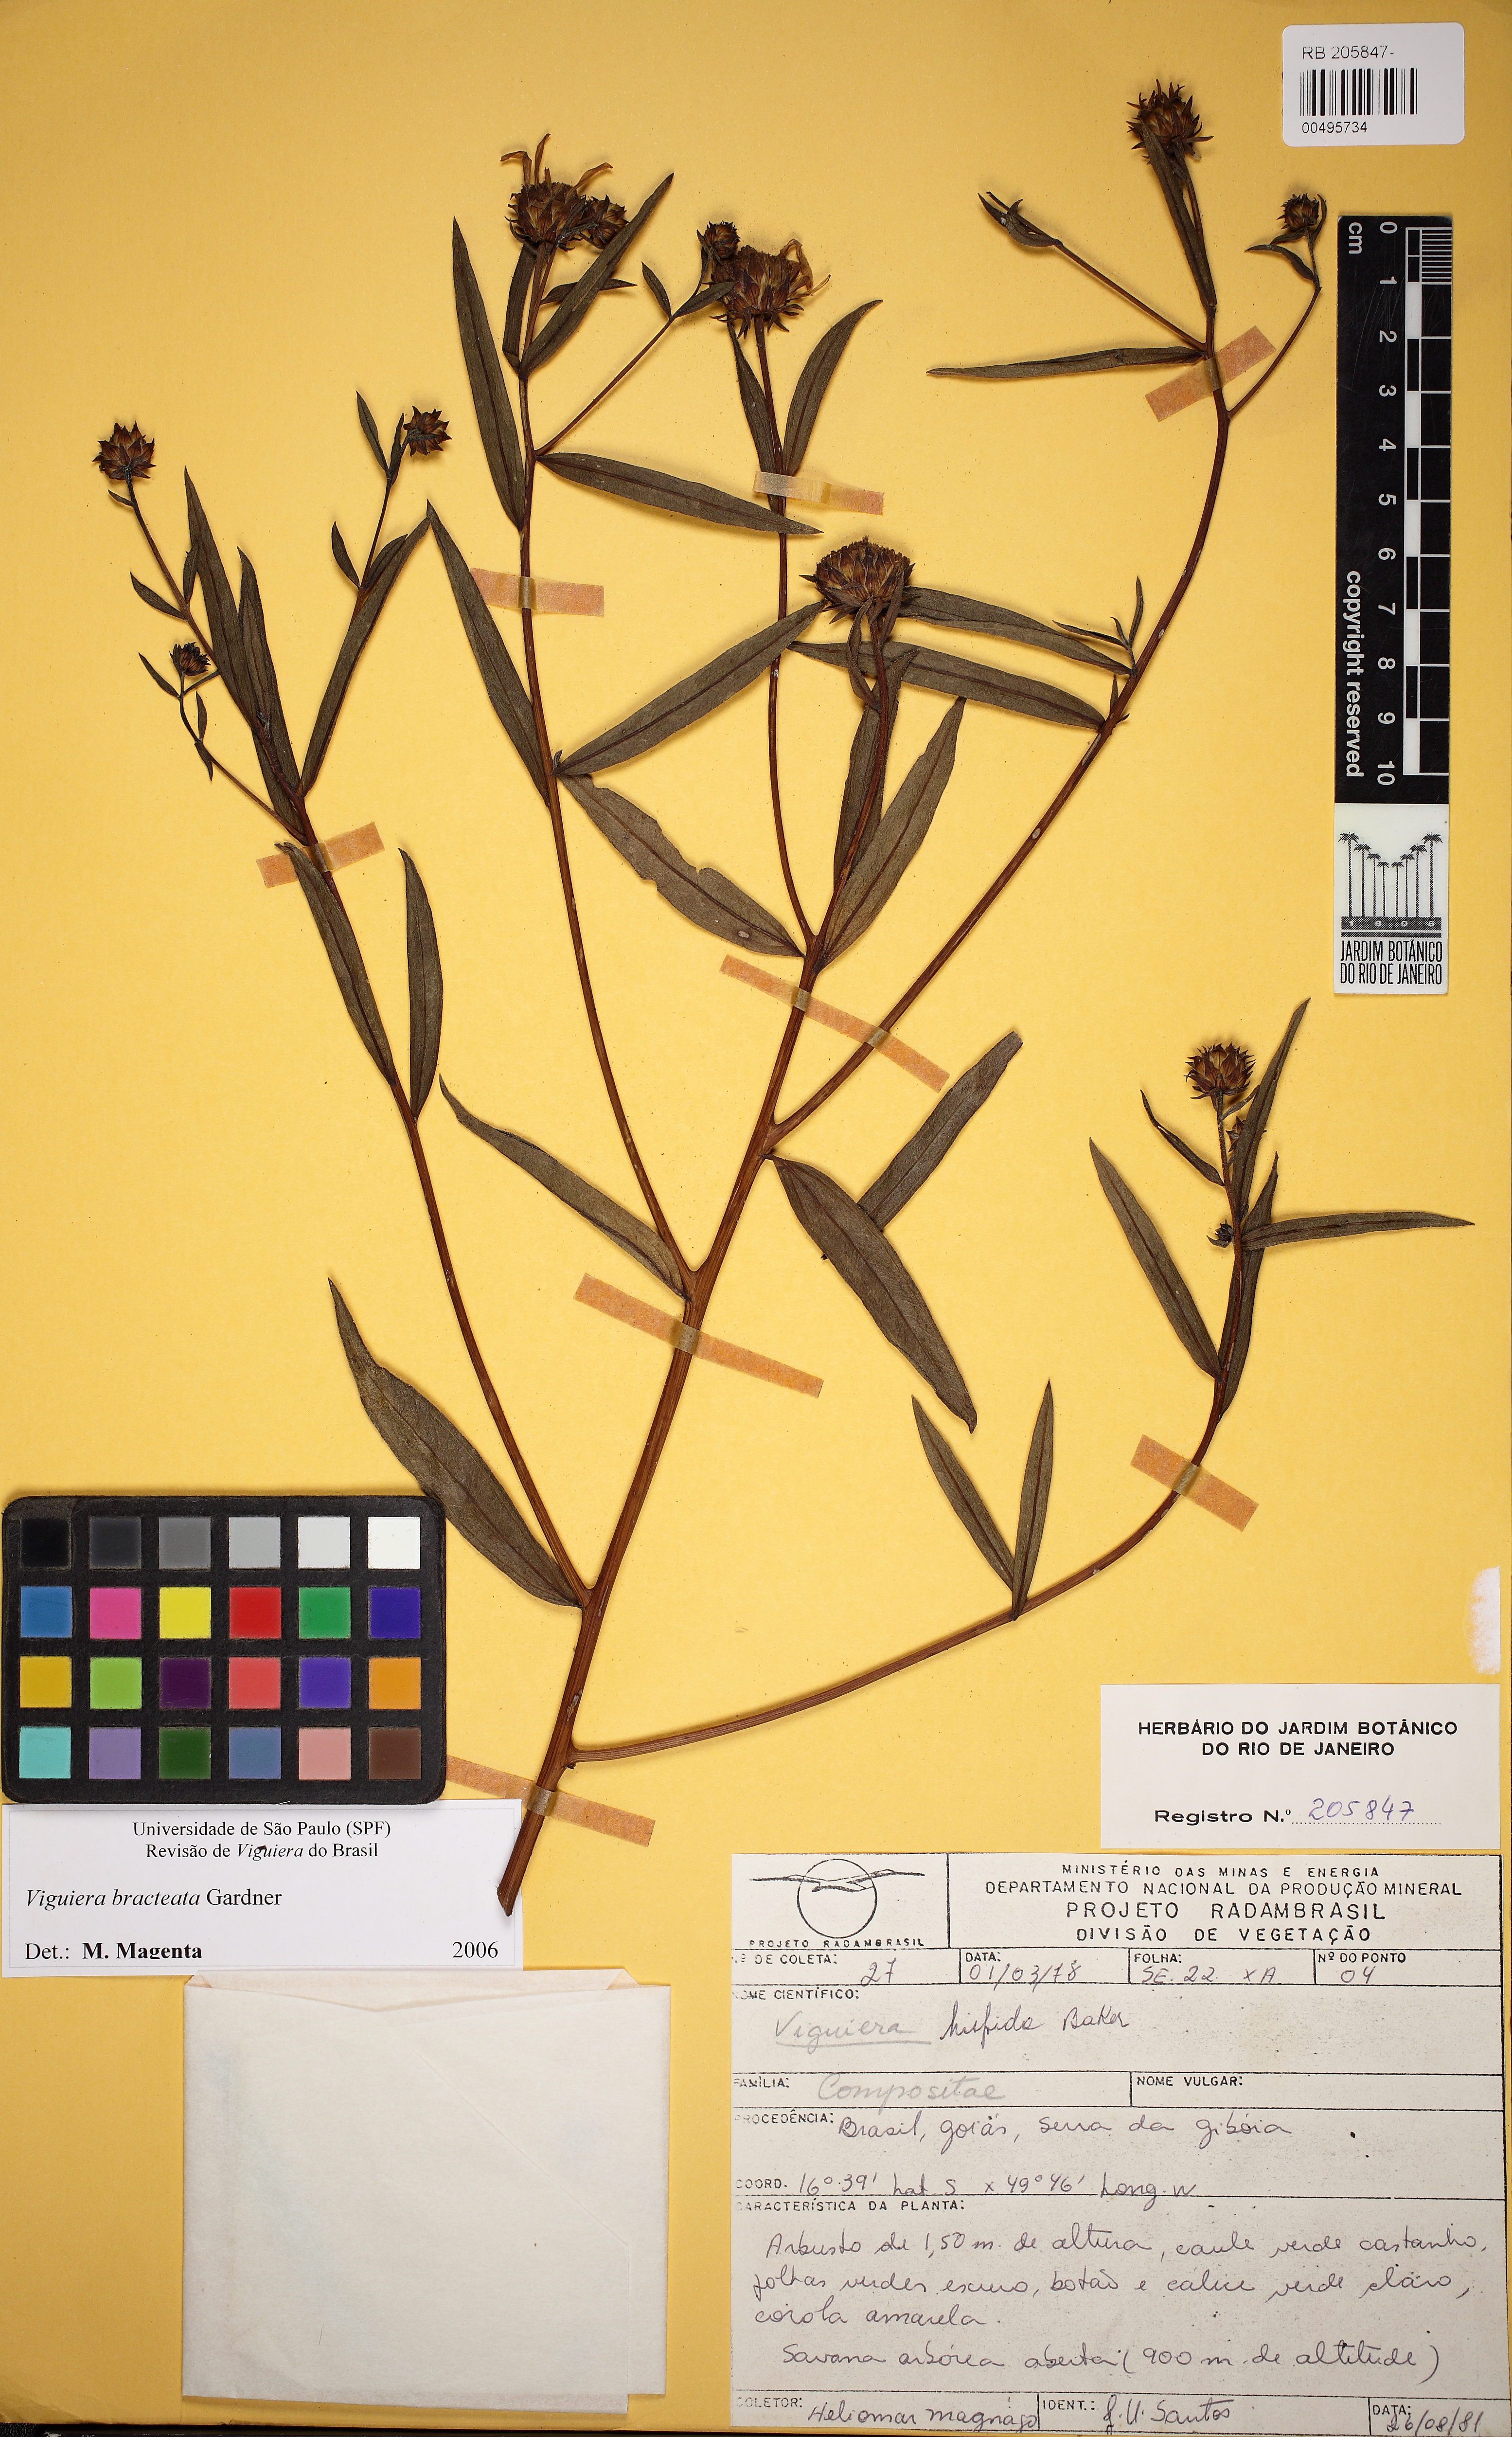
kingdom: Plantae
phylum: Tracheophyta
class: Magnoliopsida
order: Asterales
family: Asteraceae
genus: Aldama
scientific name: Aldama bracteata
